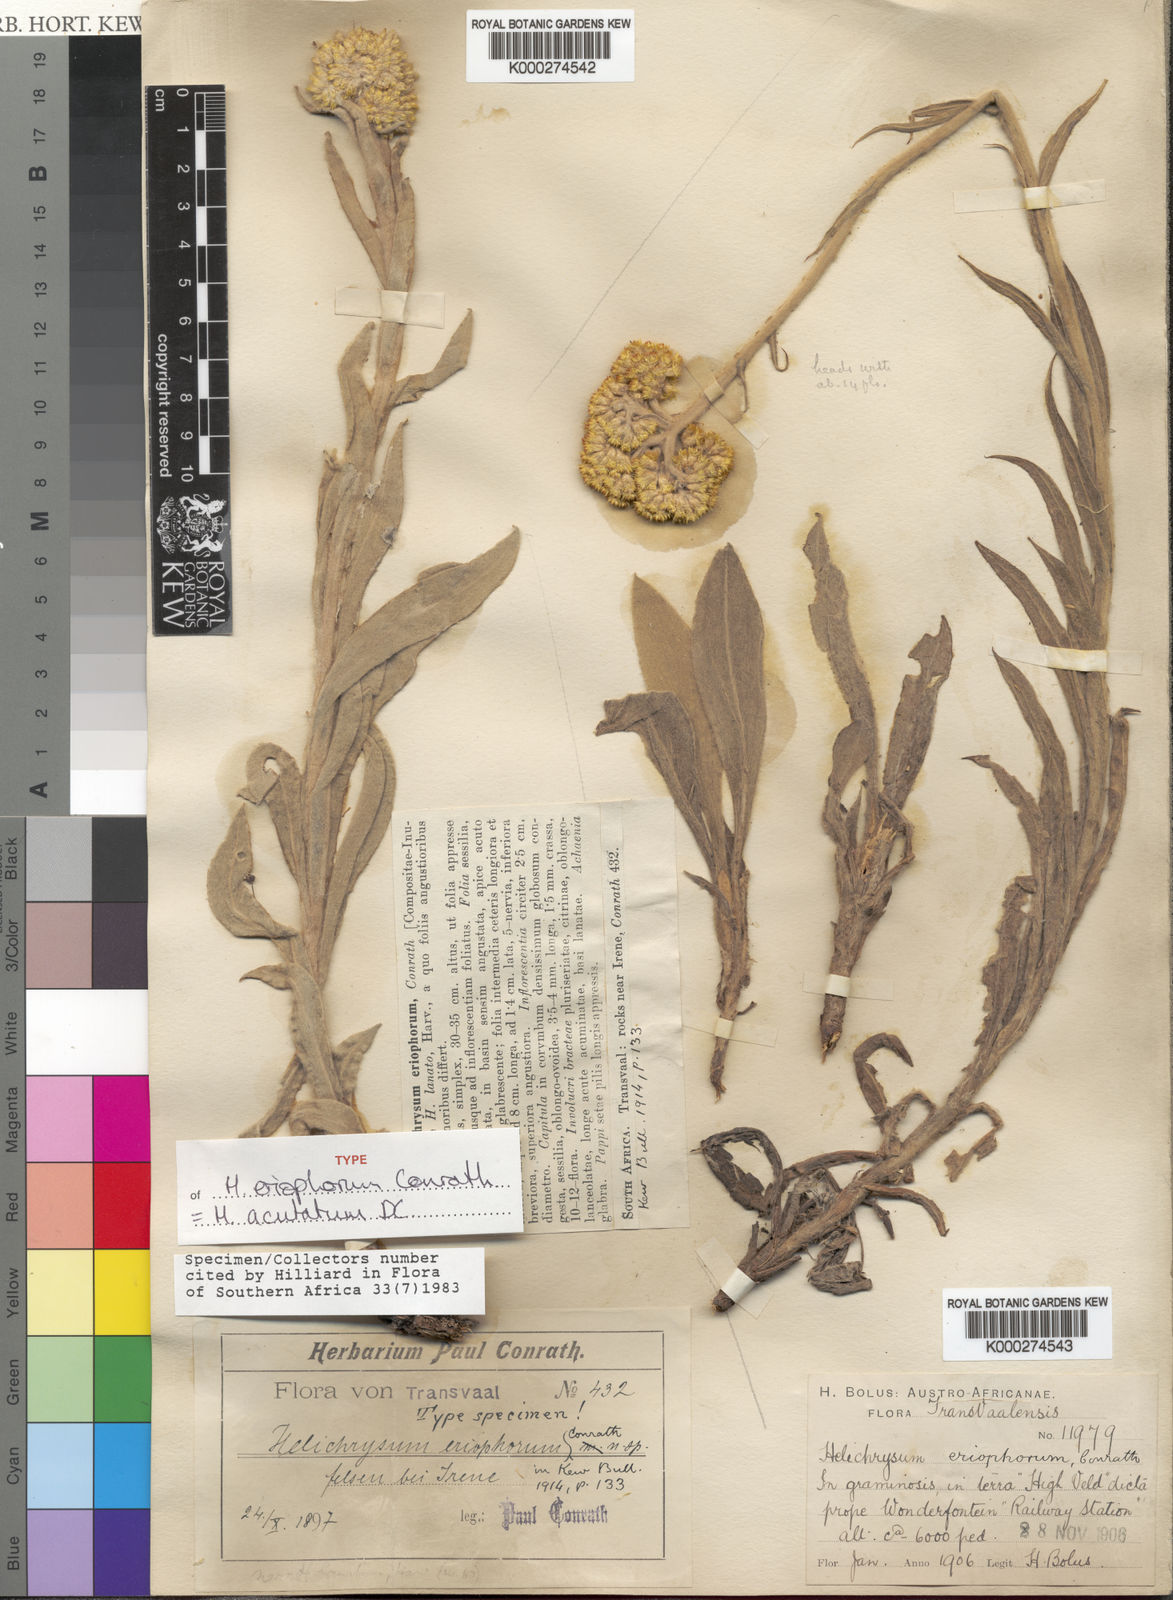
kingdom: Plantae
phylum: Tracheophyta
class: Magnoliopsida
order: Asterales
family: Asteraceae
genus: Helichrysum
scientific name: Helichrysum acutatum
